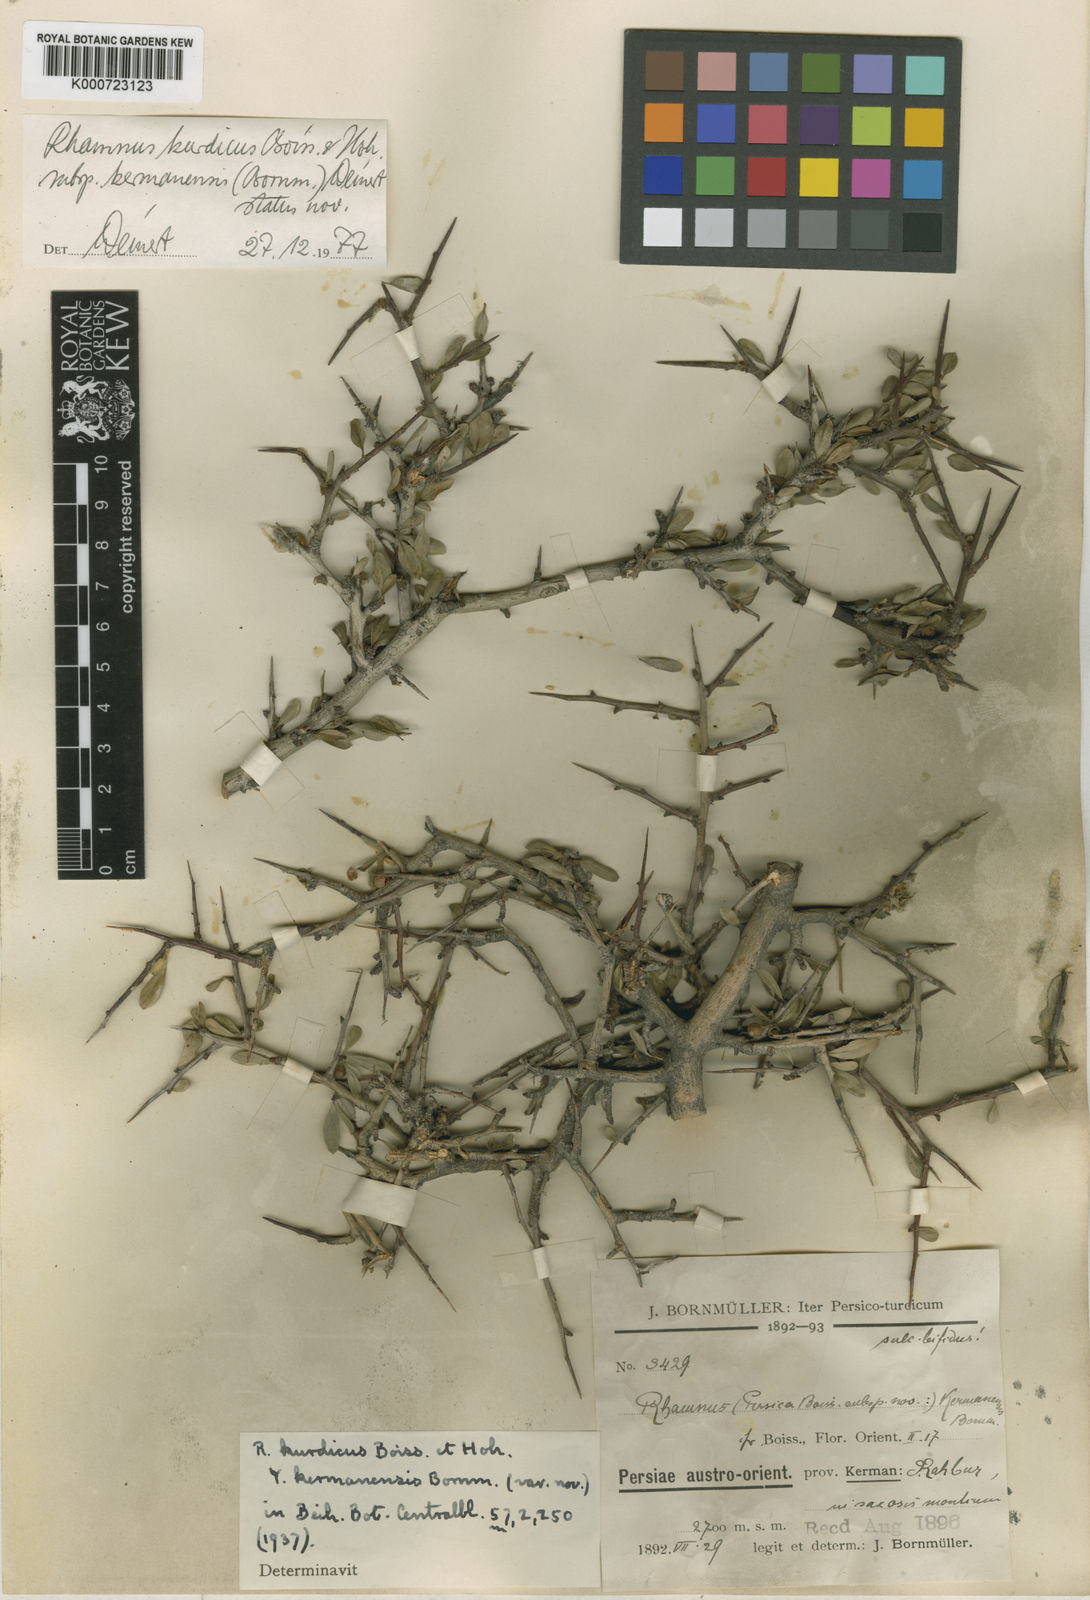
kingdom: Plantae
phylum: Tracheophyta
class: Magnoliopsida
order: Rosales
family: Rhamnaceae
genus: Rhamnus
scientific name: Rhamnus kurdica
